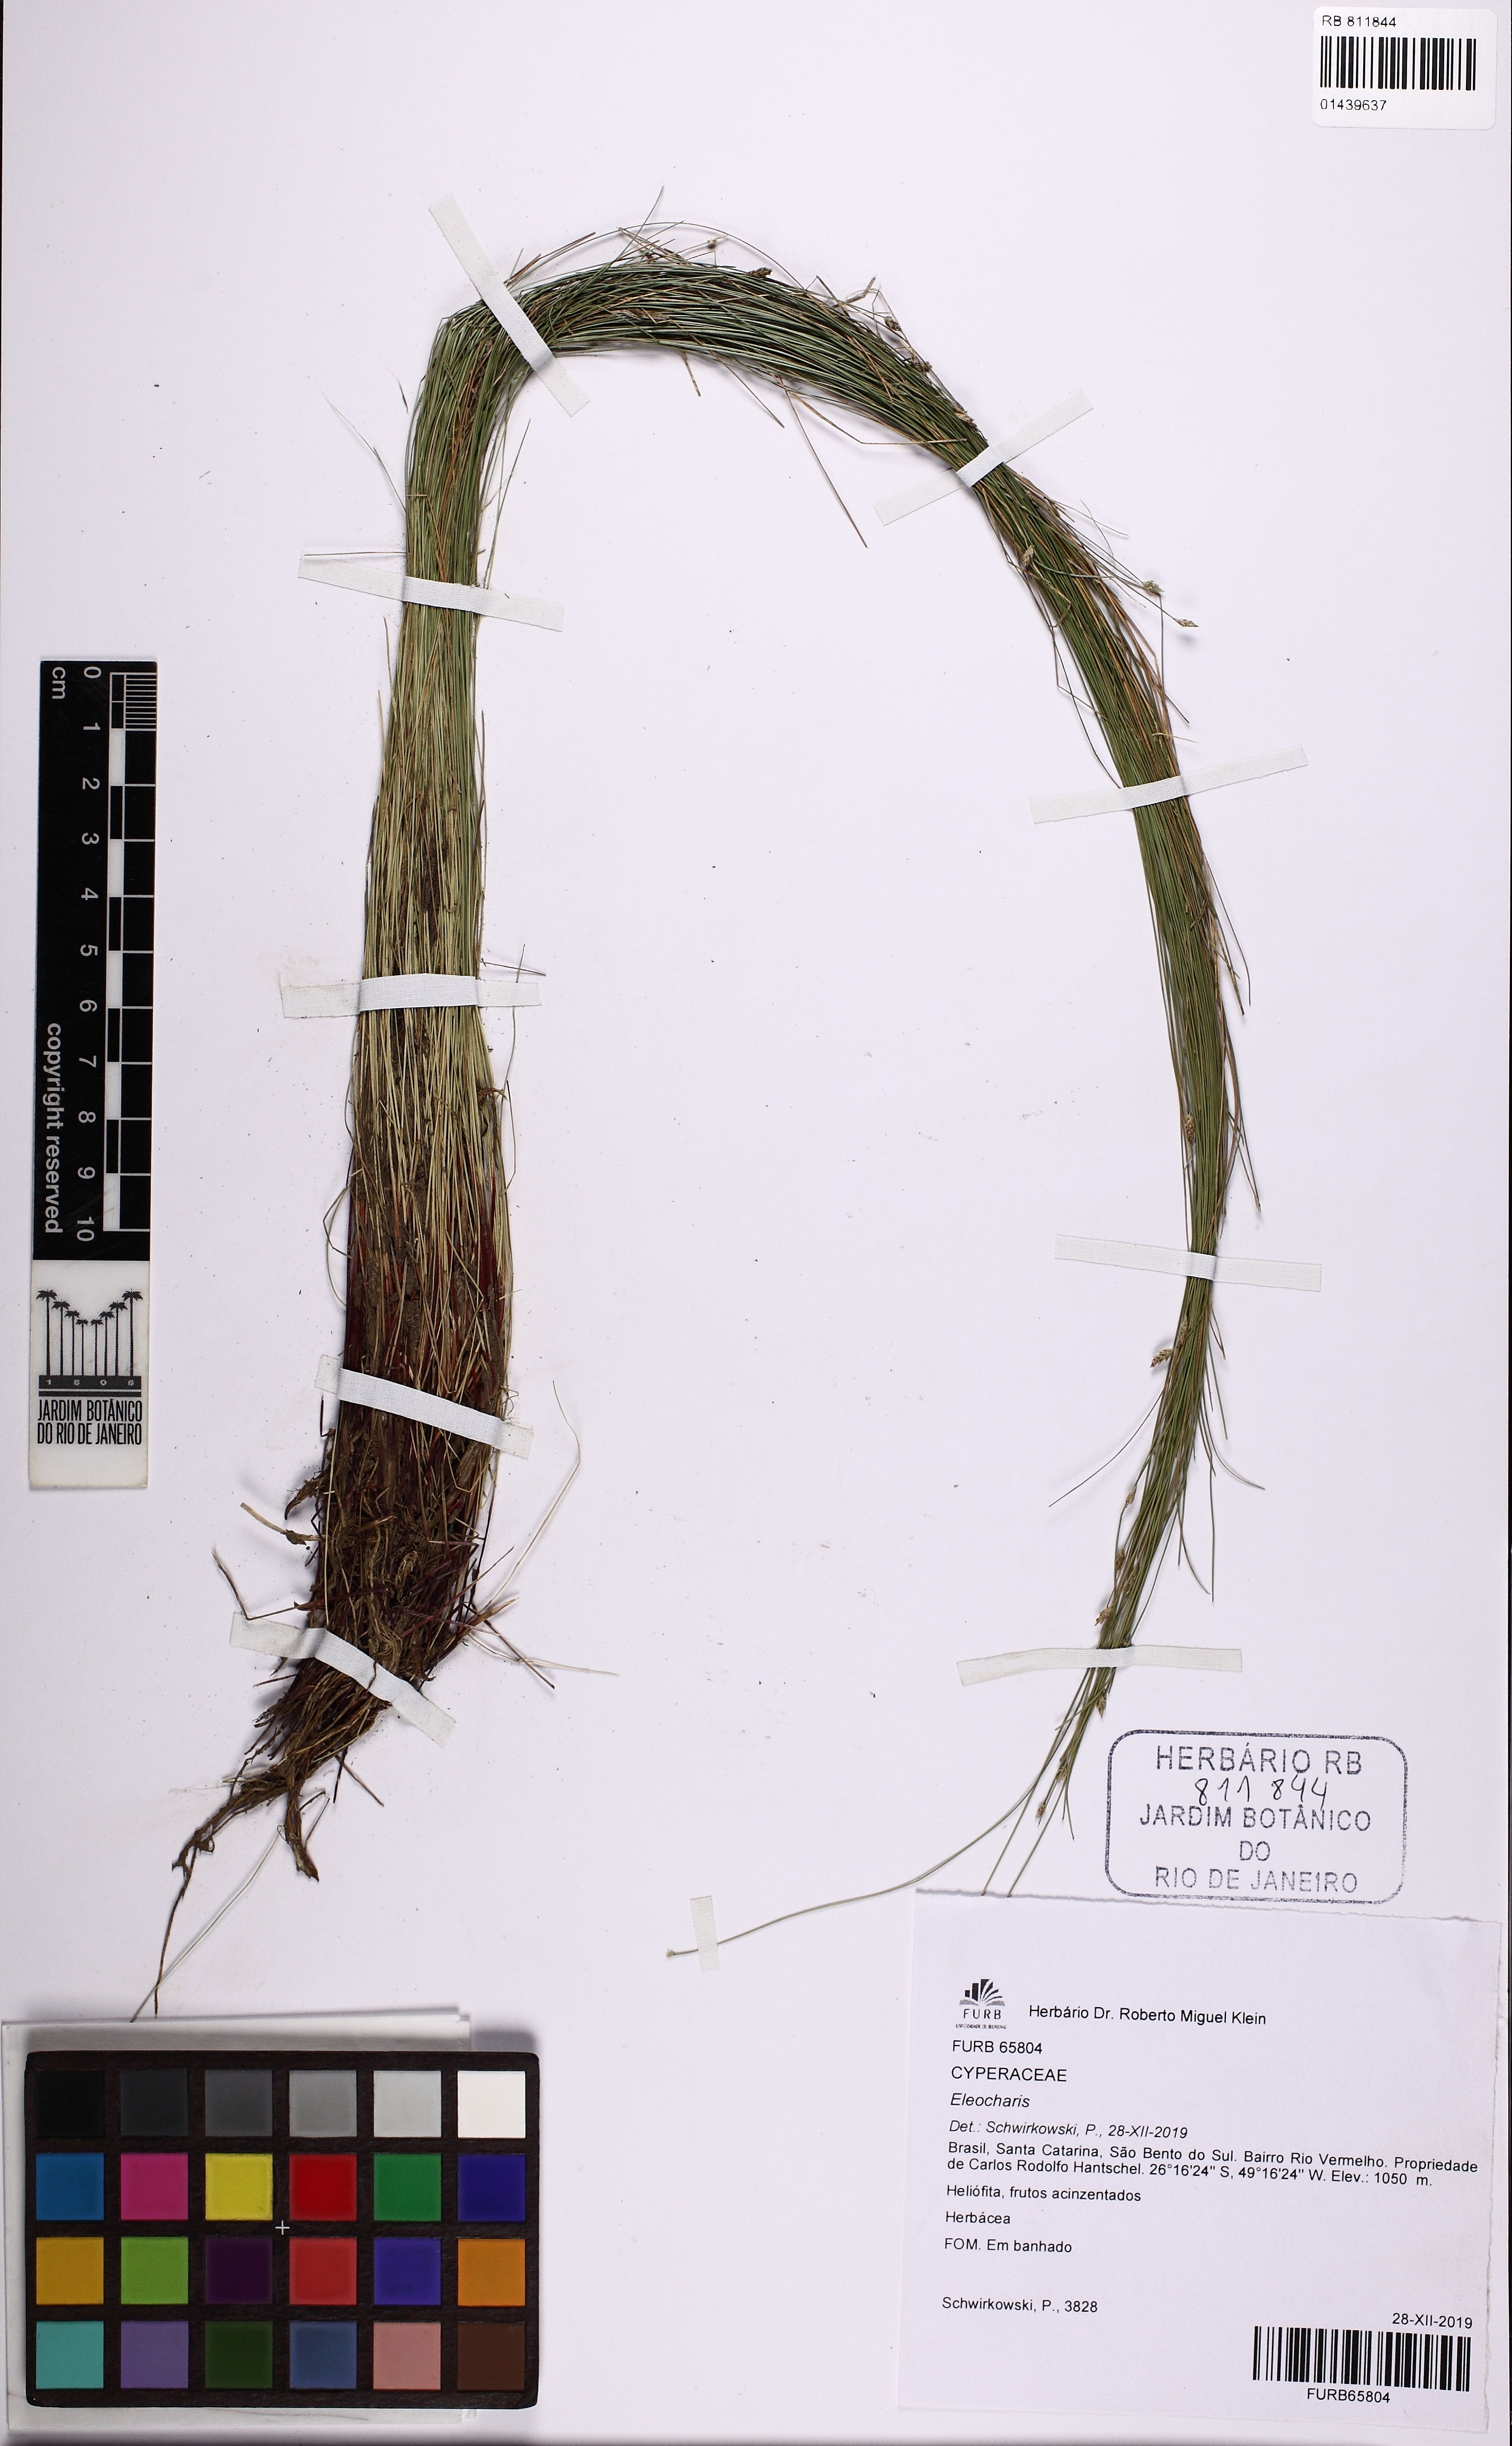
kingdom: Plantae
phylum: Tracheophyta
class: Liliopsida
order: Poales
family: Cyperaceae
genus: Eleocharis
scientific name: Eleocharis
